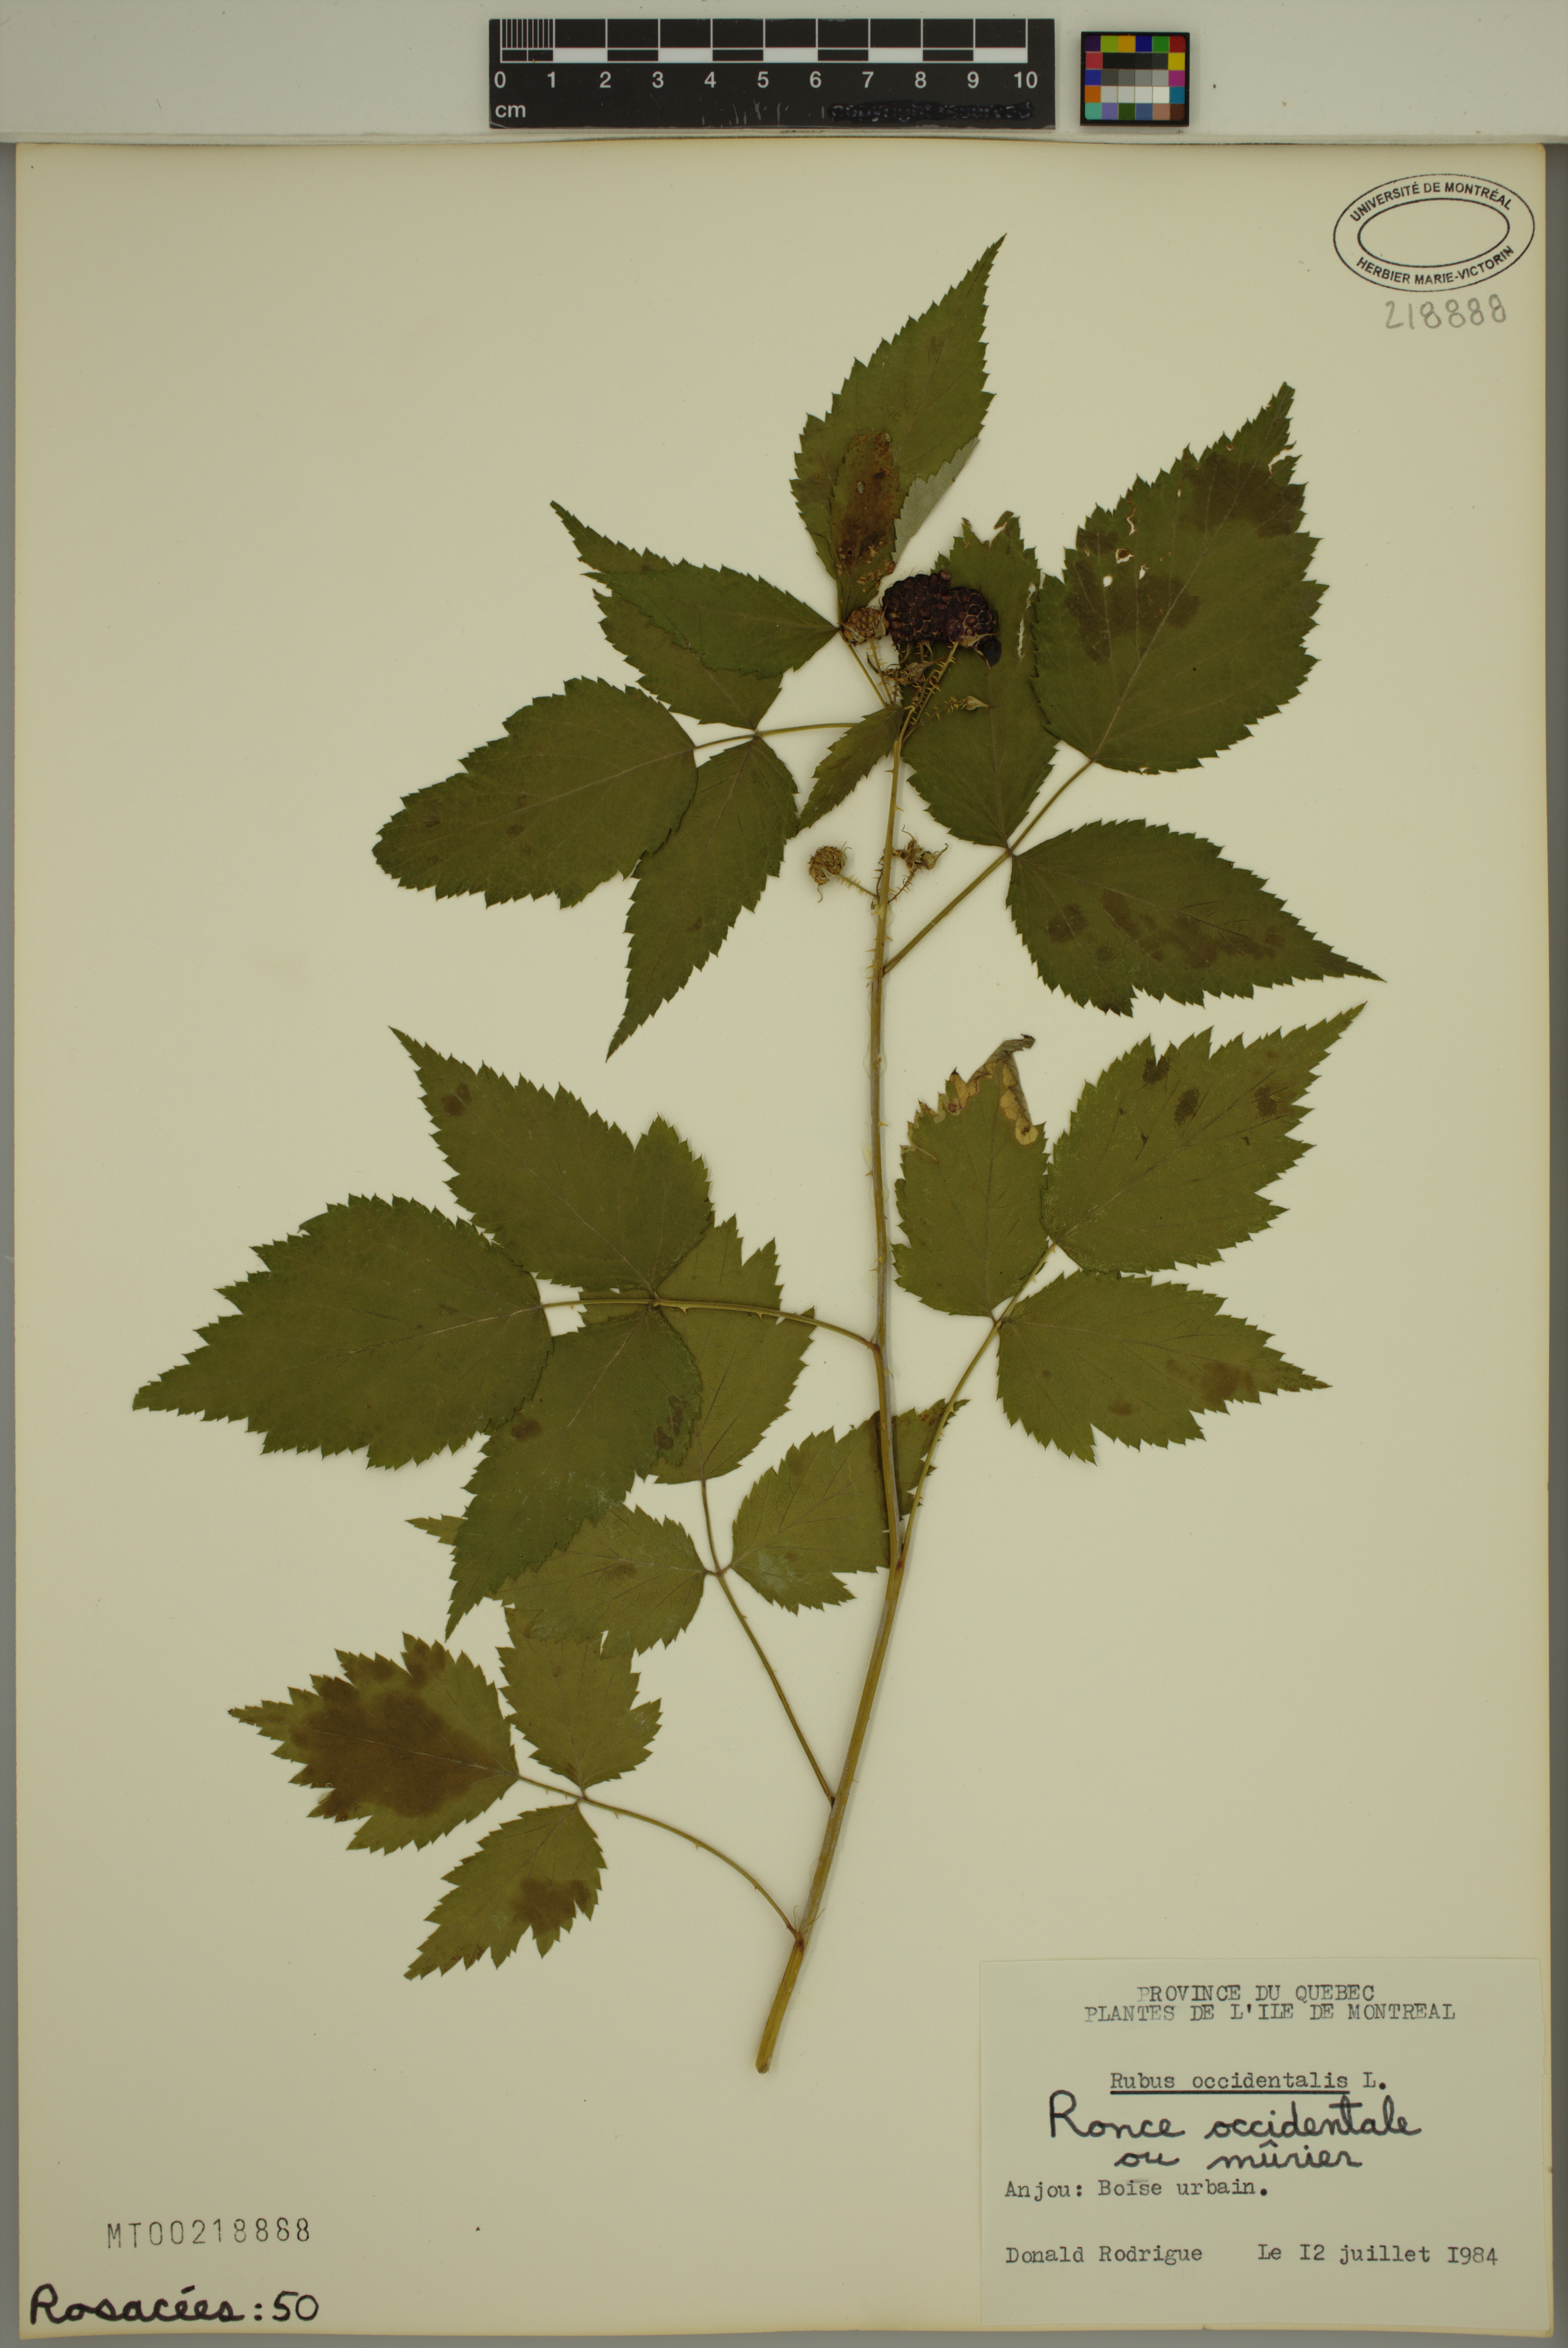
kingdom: Plantae
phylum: Tracheophyta
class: Magnoliopsida
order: Rosales
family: Rosaceae
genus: Rubus
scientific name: Rubus occidentalis
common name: Black raspberry
